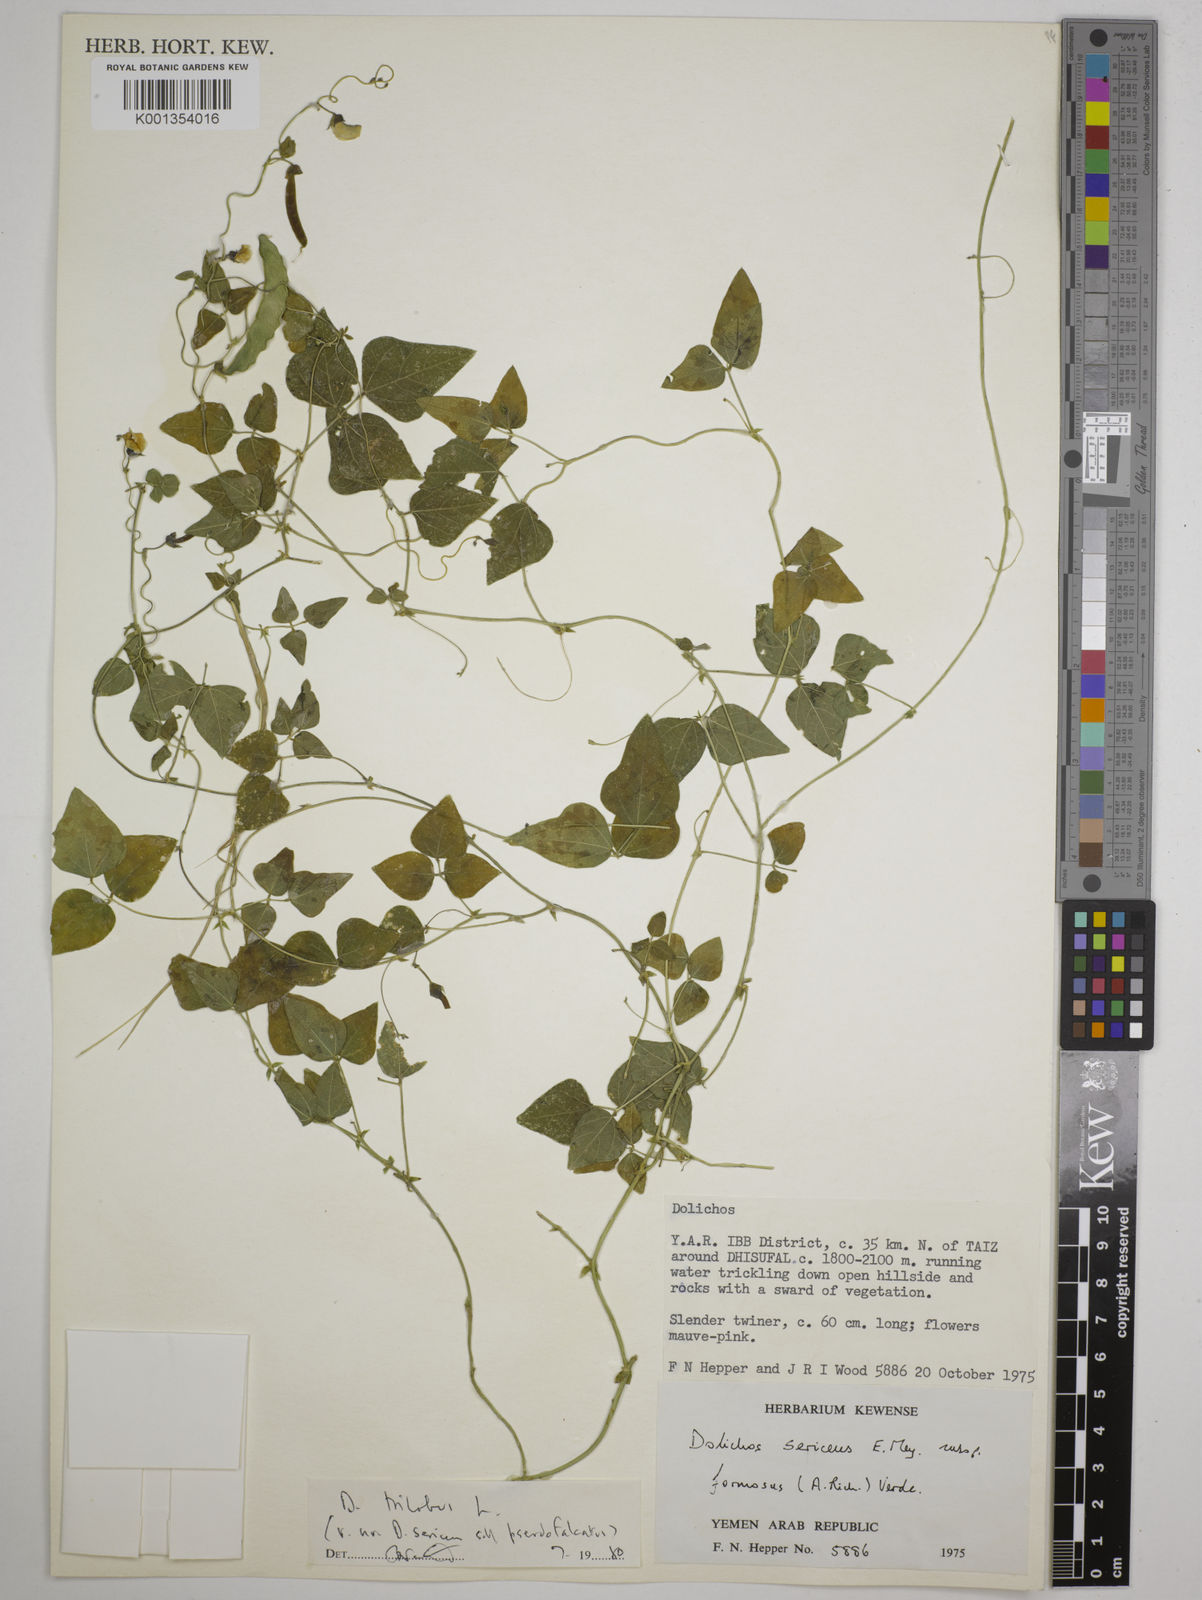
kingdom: Plantae
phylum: Tracheophyta
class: Magnoliopsida
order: Fabales
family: Fabaceae
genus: Dolichos
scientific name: Dolichos
